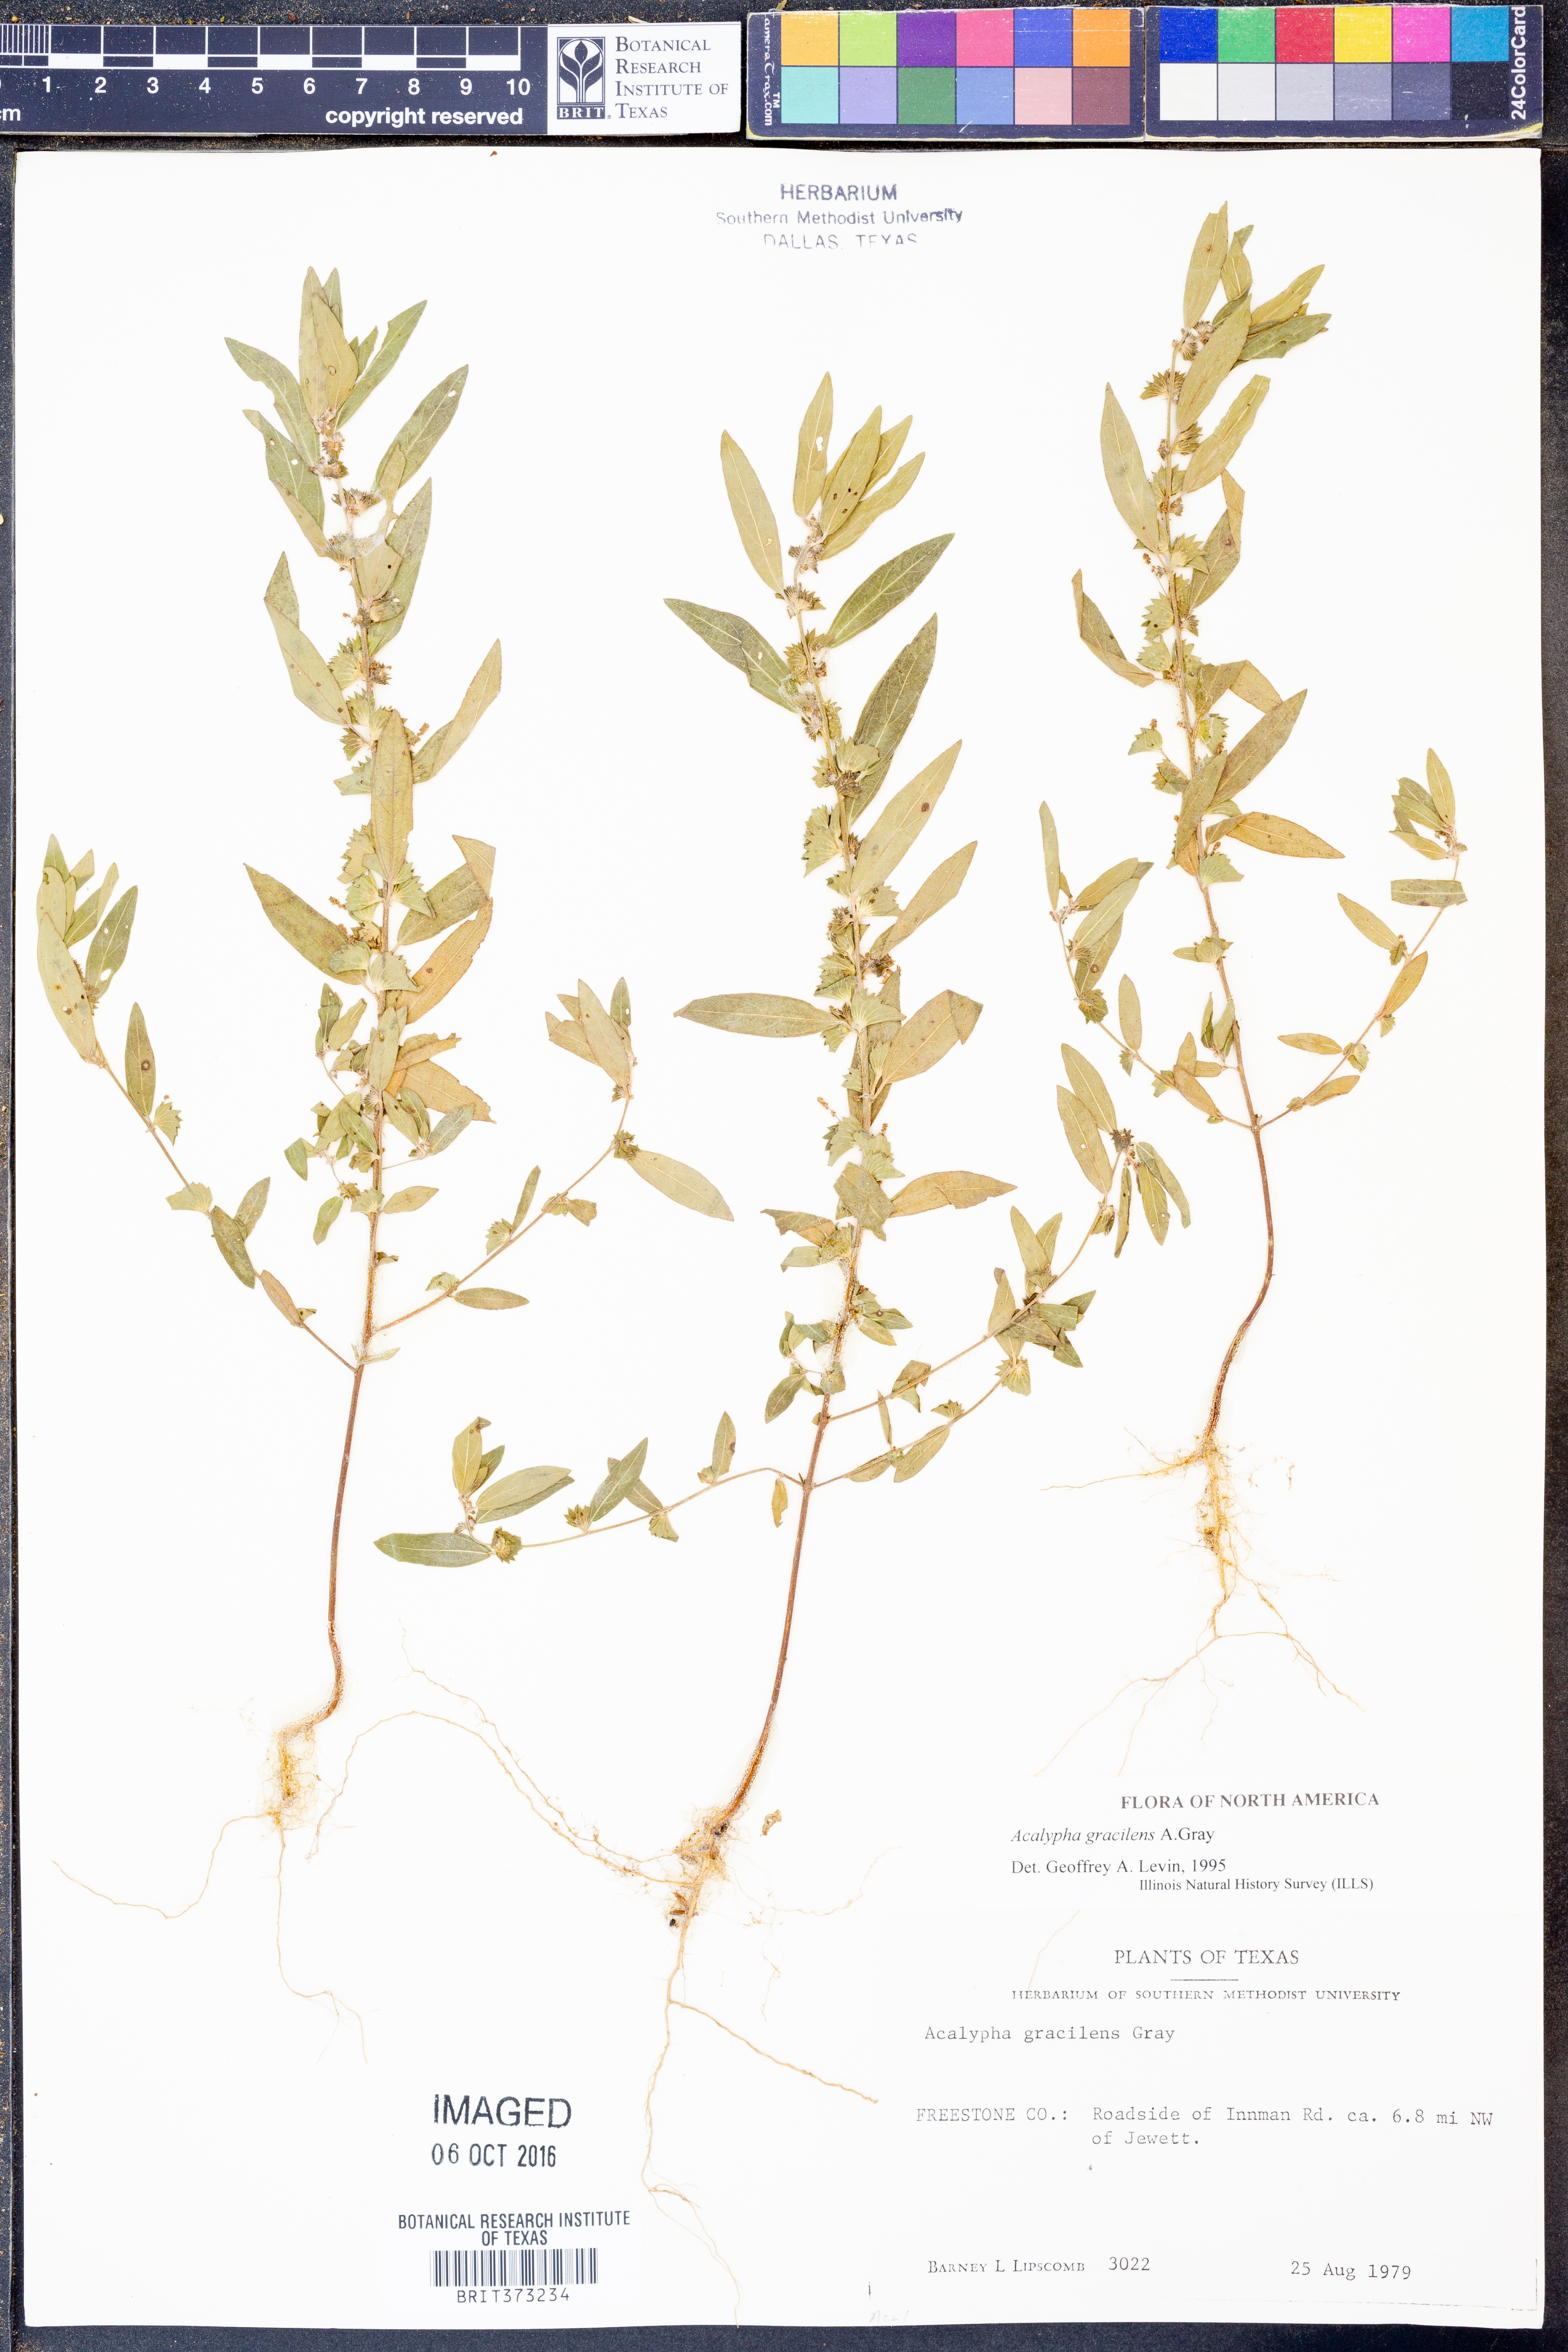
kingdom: Plantae
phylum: Tracheophyta
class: Magnoliopsida
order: Malpighiales
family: Euphorbiaceae
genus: Acalypha
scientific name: Acalypha gracilens
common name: Slender three-seeded mercury
